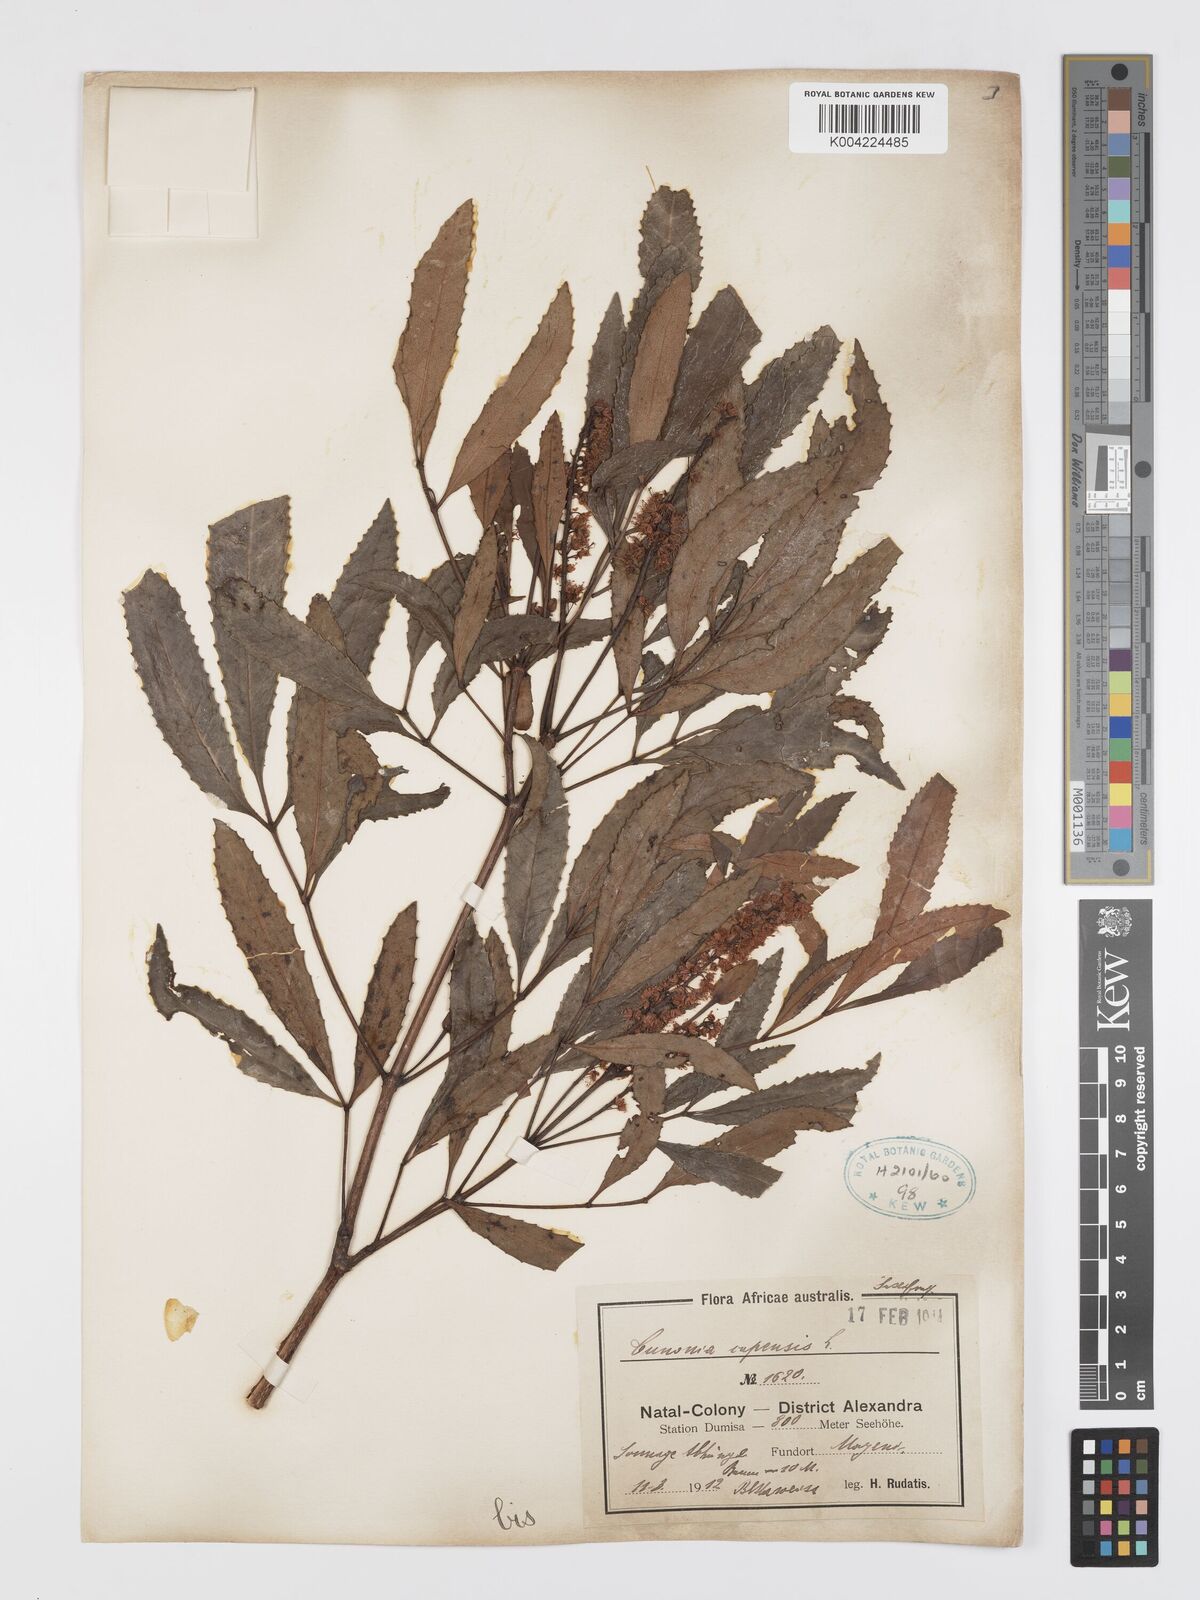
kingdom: Plantae
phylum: Tracheophyta
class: Magnoliopsida
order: Oxalidales
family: Cunoniaceae
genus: Cunonia
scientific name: Cunonia capensis
